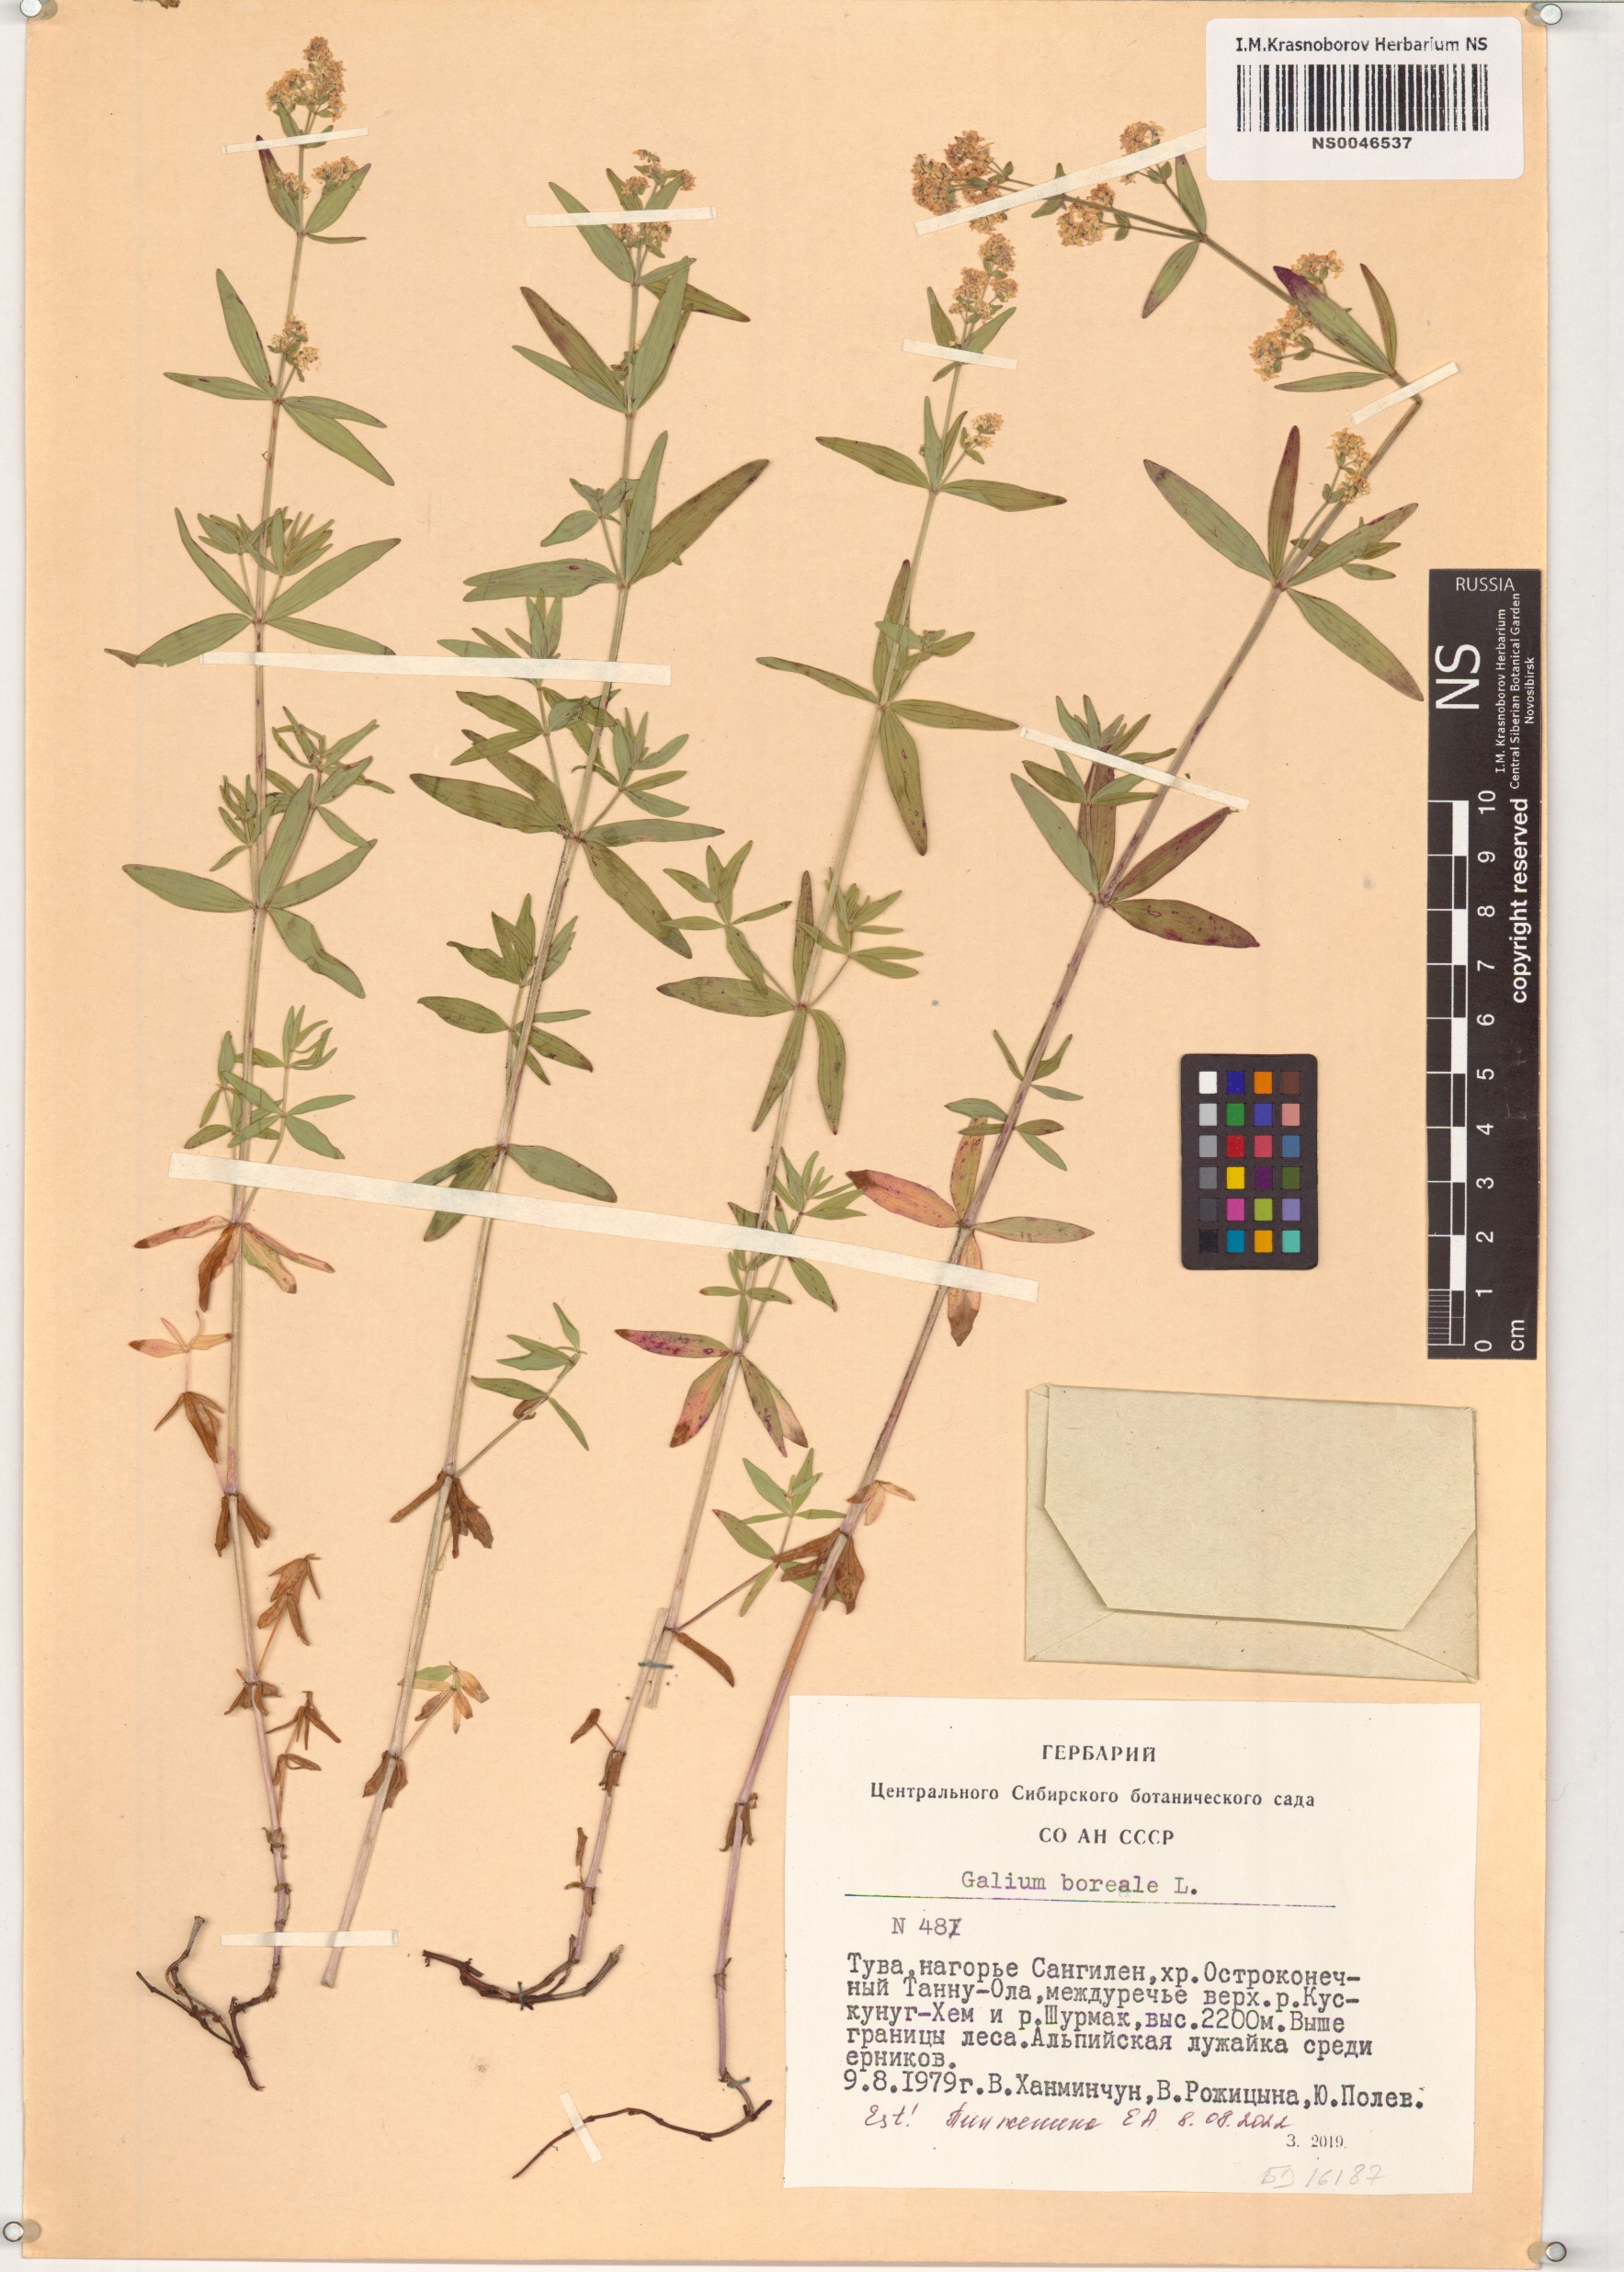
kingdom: Plantae
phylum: Tracheophyta
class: Magnoliopsida
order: Gentianales
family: Rubiaceae
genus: Galium
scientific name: Galium boreale
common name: Northern bedstraw
